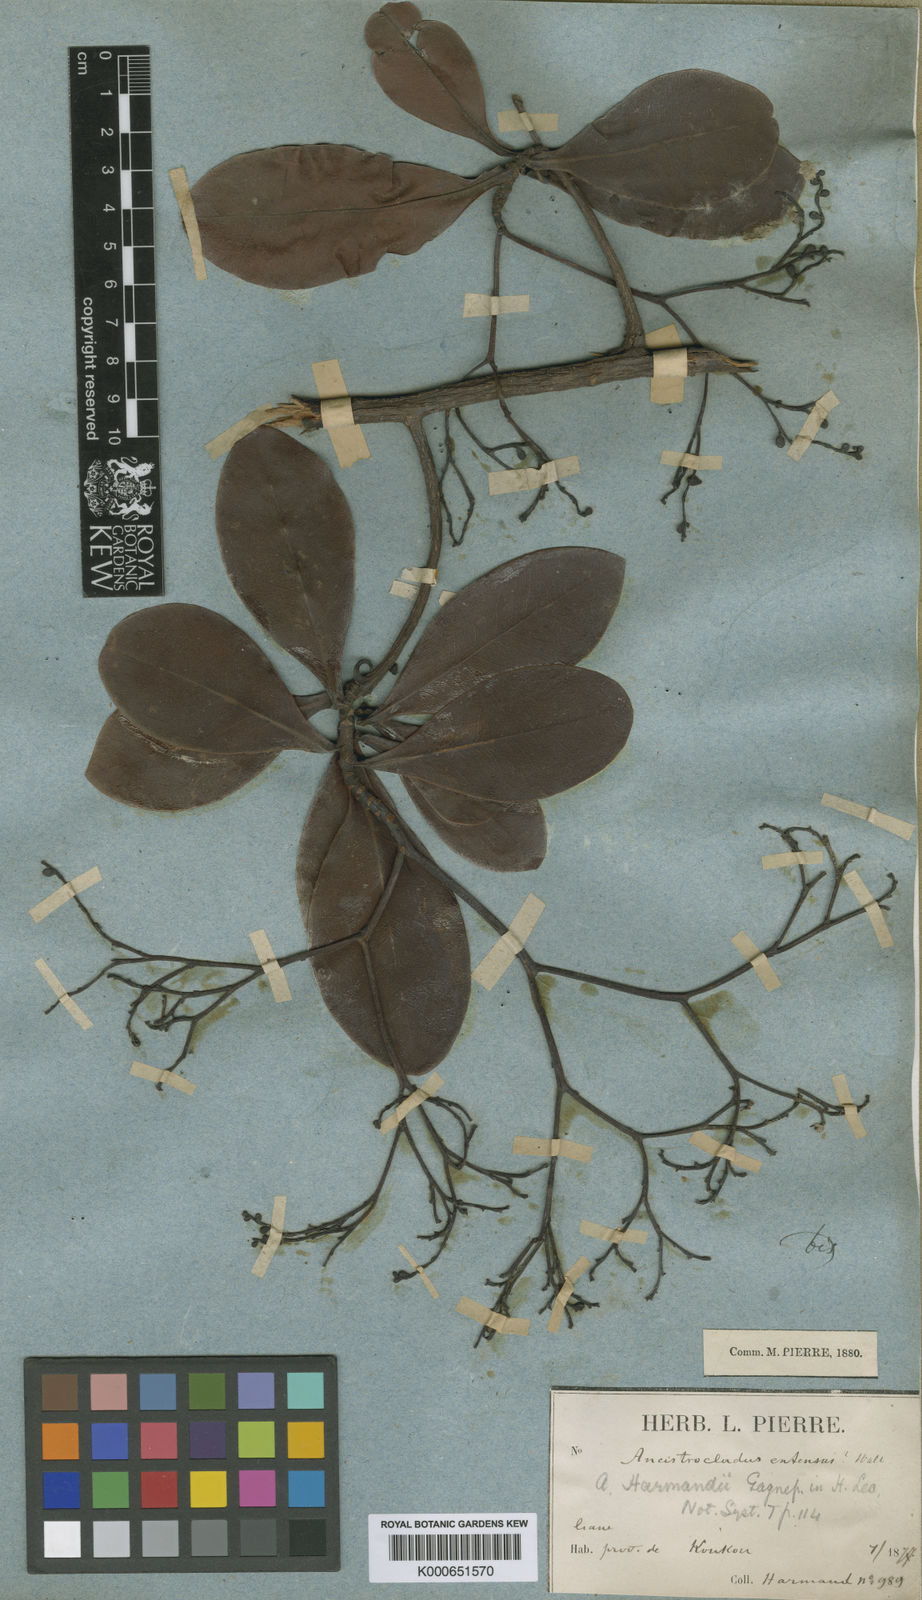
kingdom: Plantae
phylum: Tracheophyta
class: Magnoliopsida
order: Caryophyllales
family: Ancistrocladaceae
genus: Ancistrocladus
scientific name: Ancistrocladus tectorius
